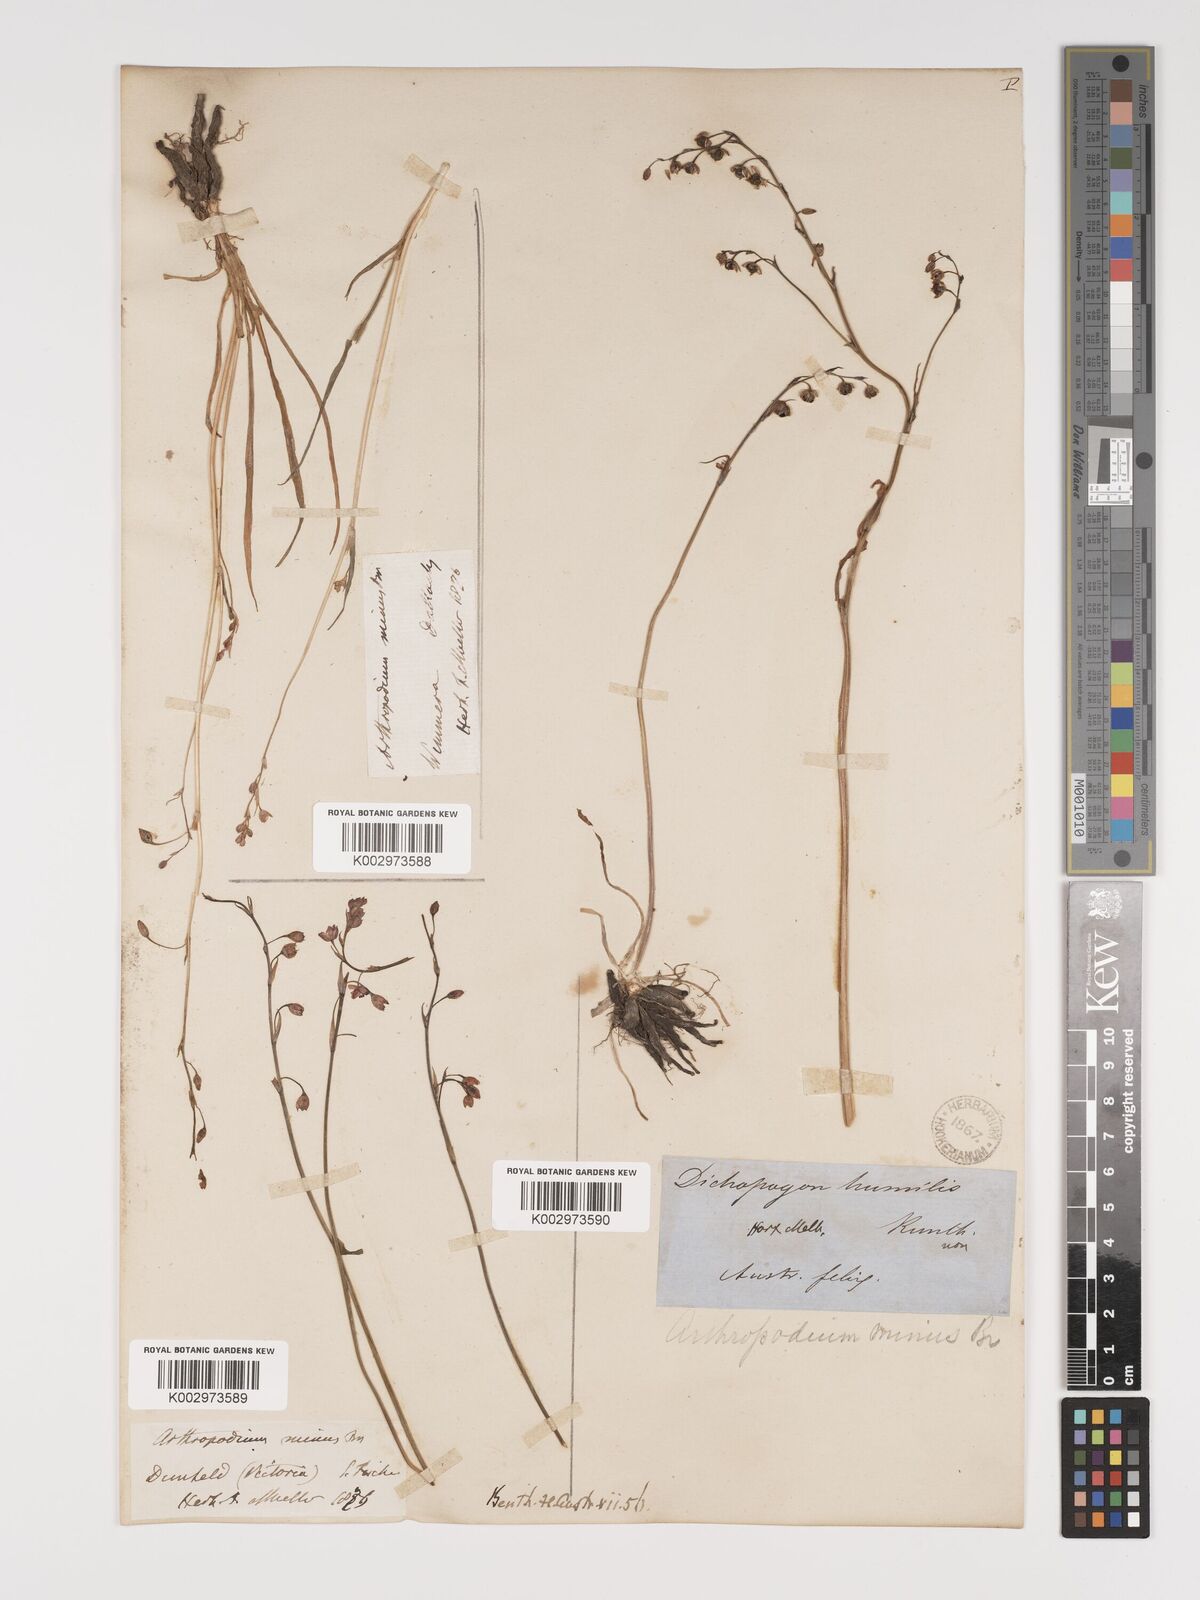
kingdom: Plantae
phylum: Tracheophyta
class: Liliopsida
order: Asparagales
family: Asparagaceae
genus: Arthropodium
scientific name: Arthropodium minus
